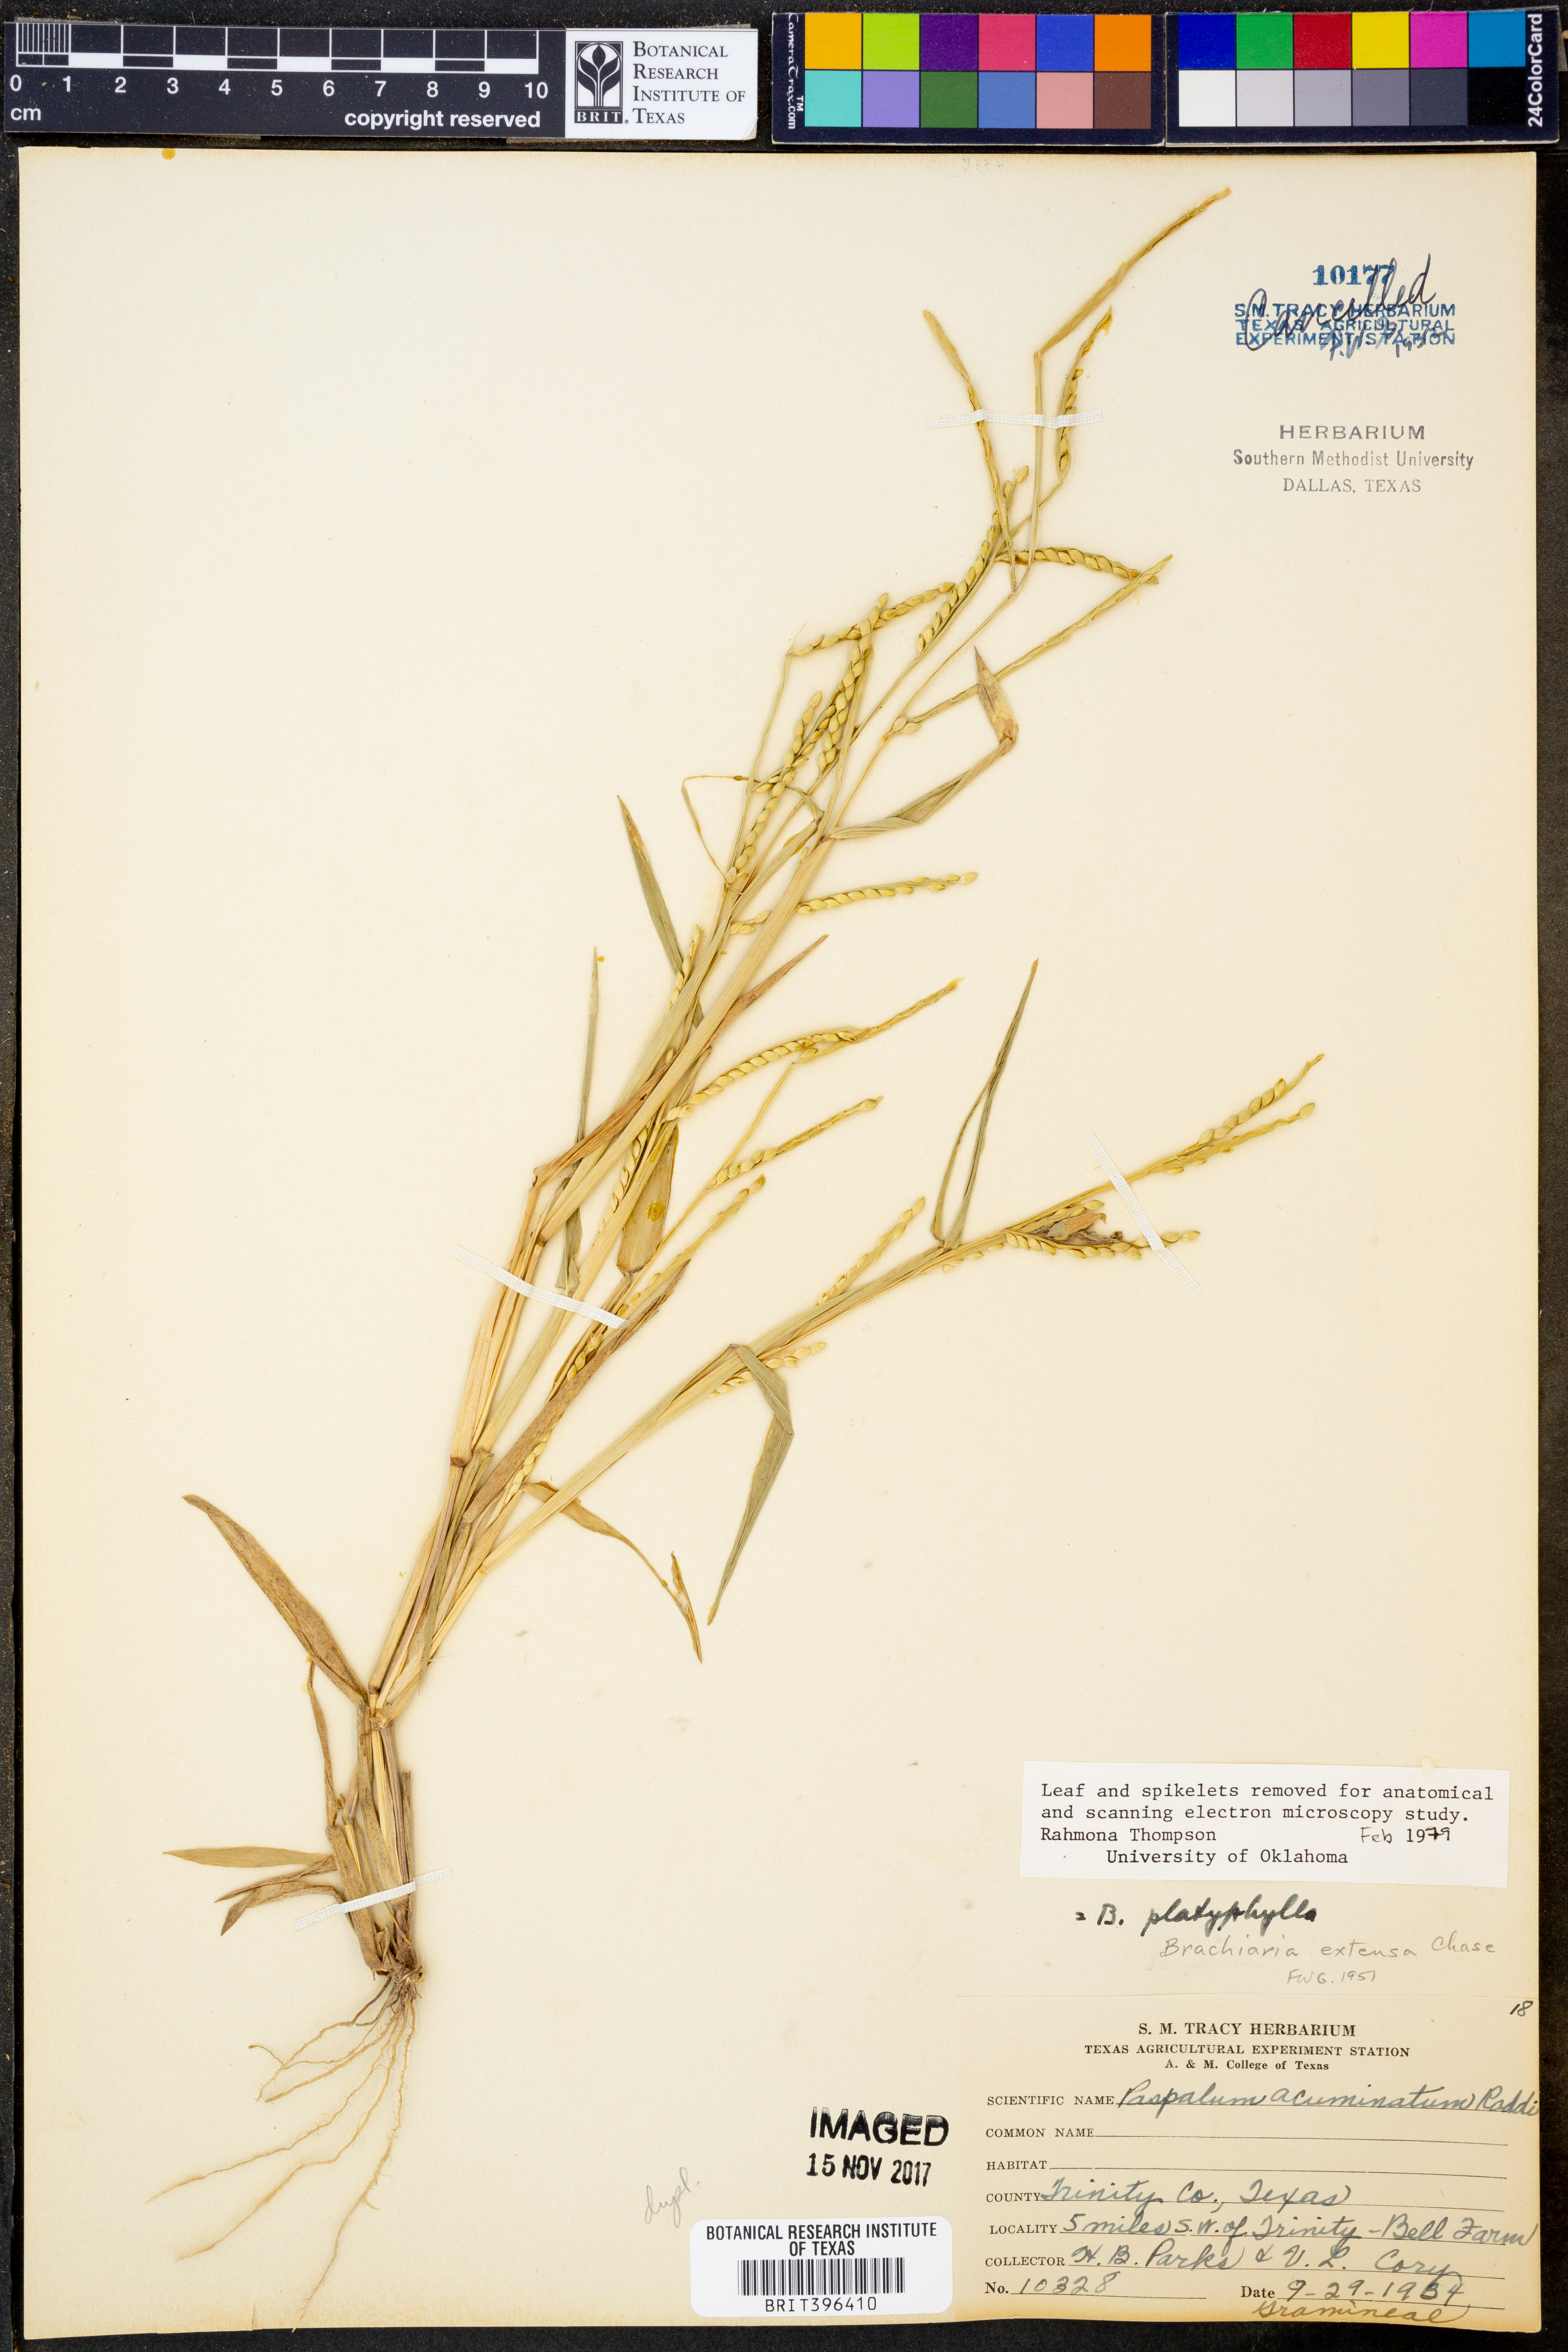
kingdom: Plantae
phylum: Tracheophyta
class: Liliopsida
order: Poales
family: Poaceae
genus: Urochloa
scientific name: Urochloa platyphylla
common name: White para grass
